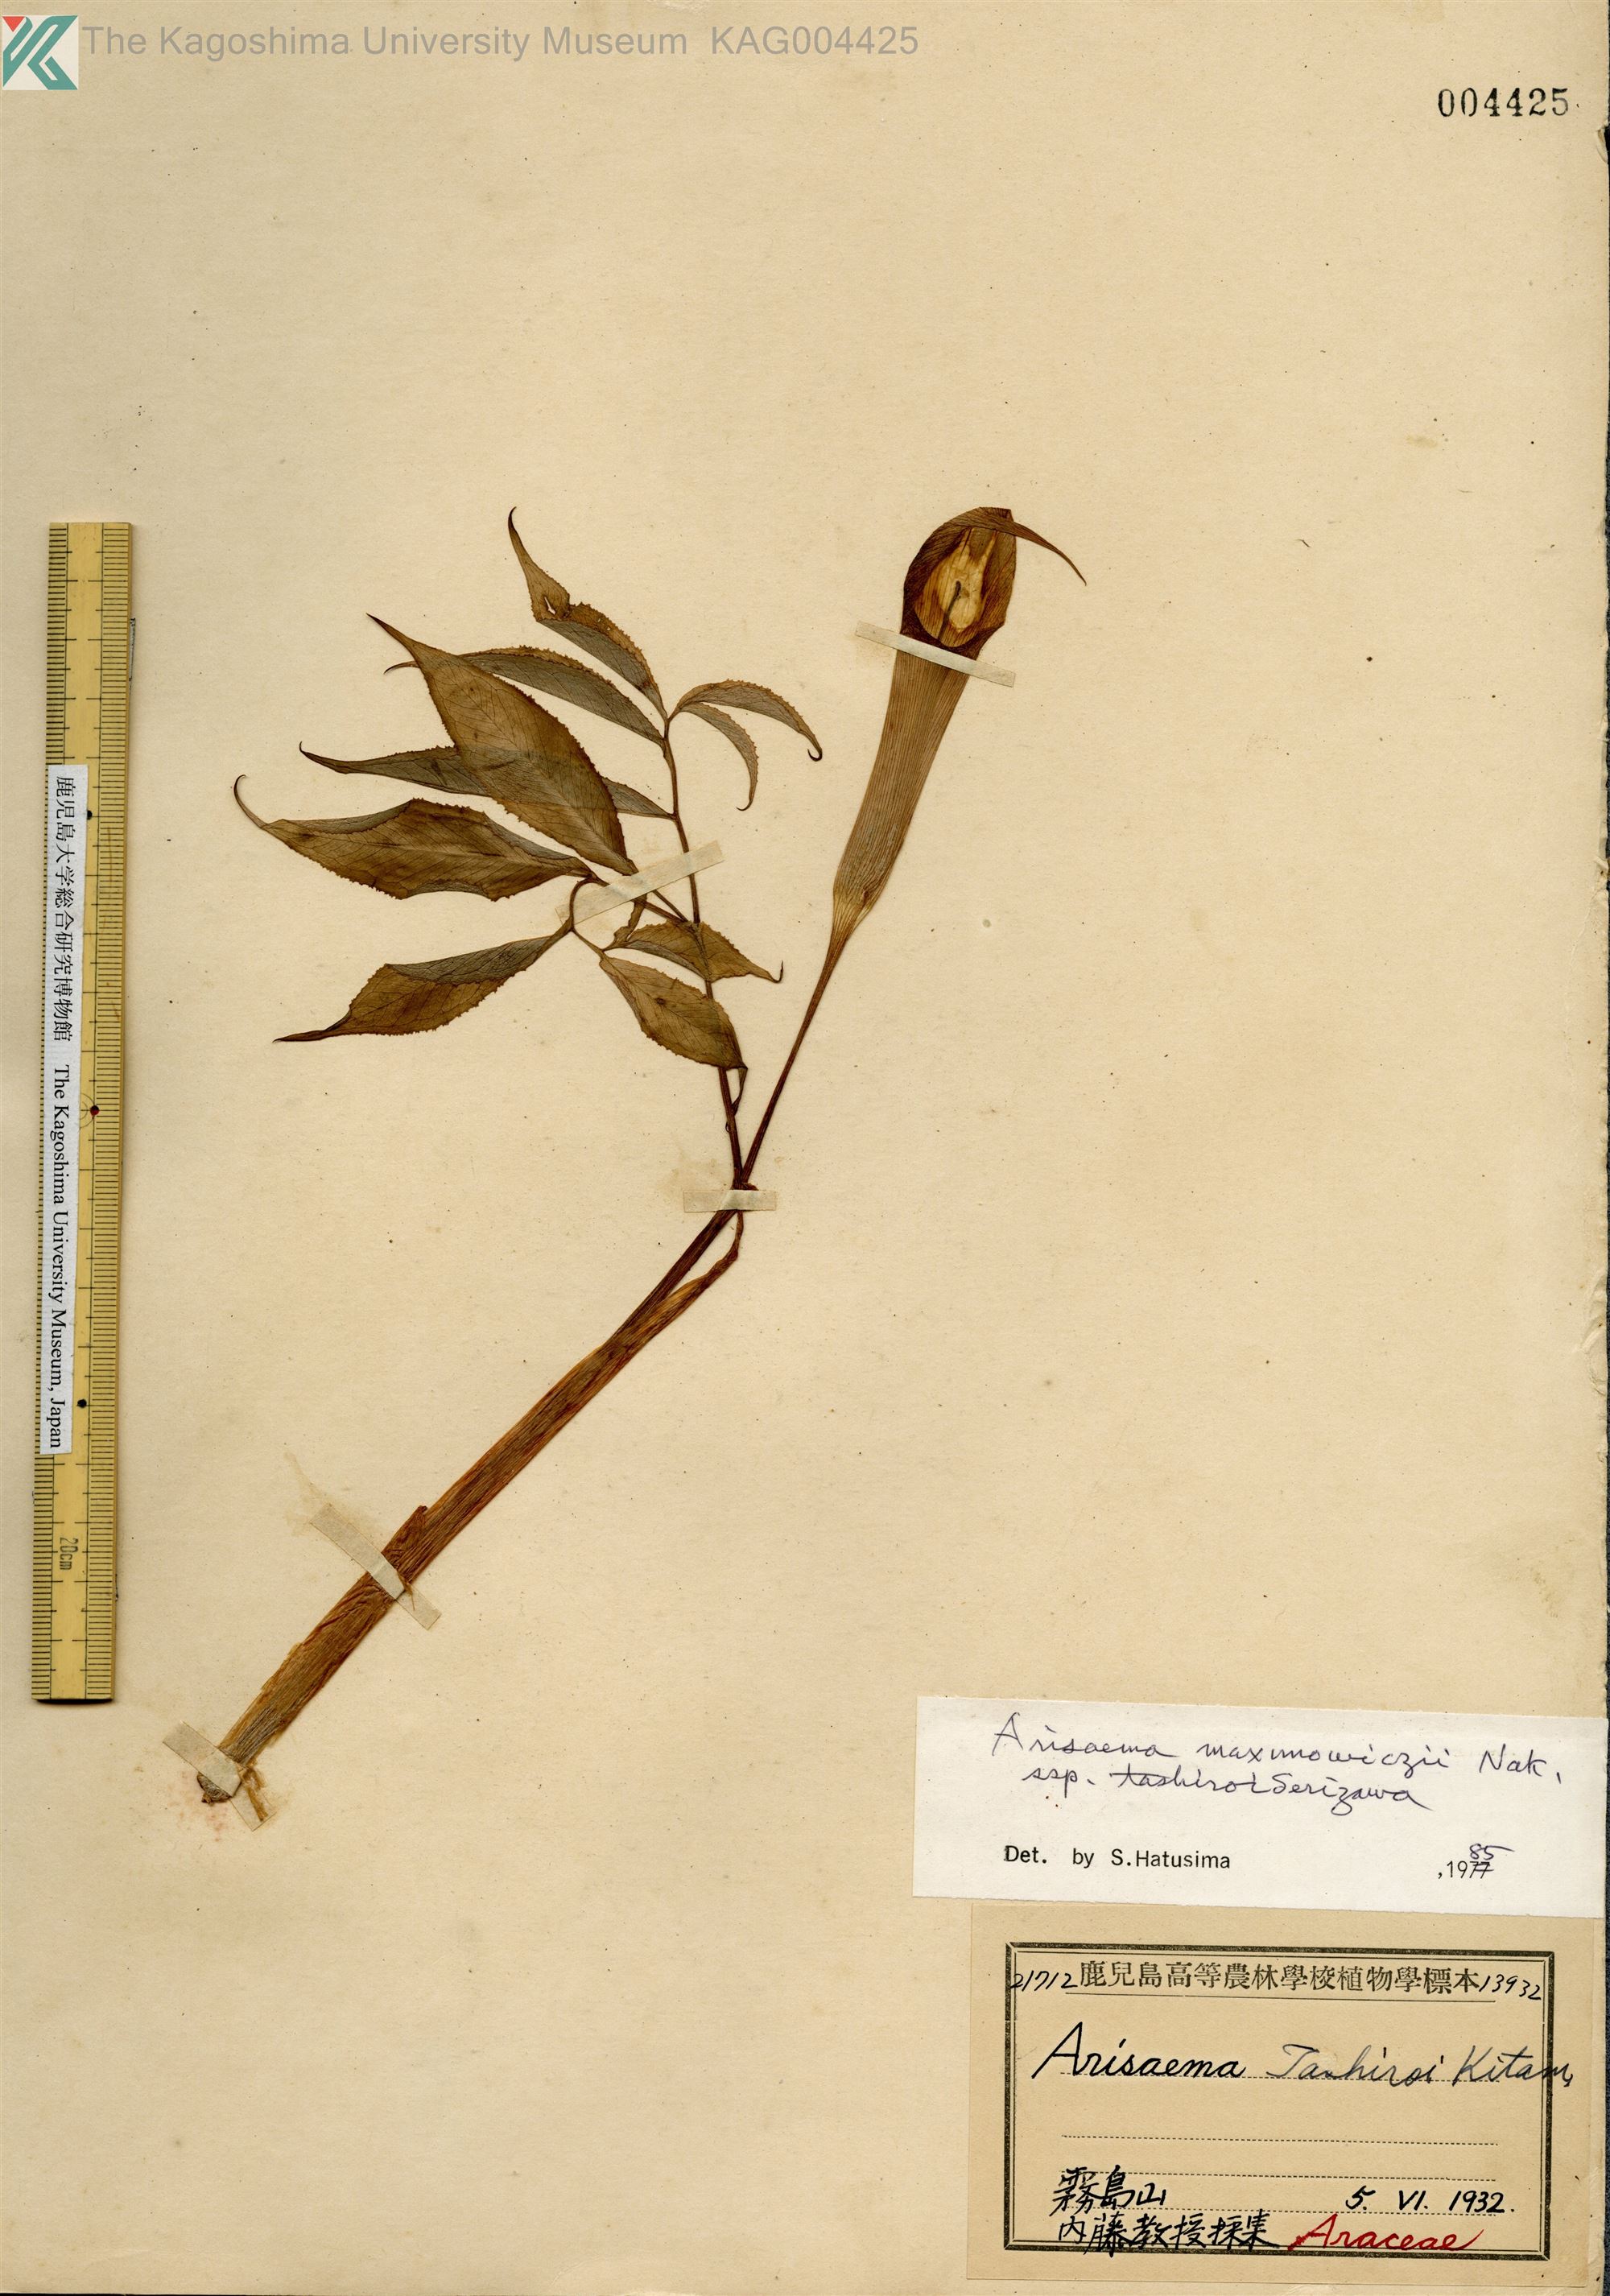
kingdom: Plantae
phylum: Tracheophyta
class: Liliopsida
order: Alismatales
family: Araceae
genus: Arisaema
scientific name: Arisaema tashiroi
